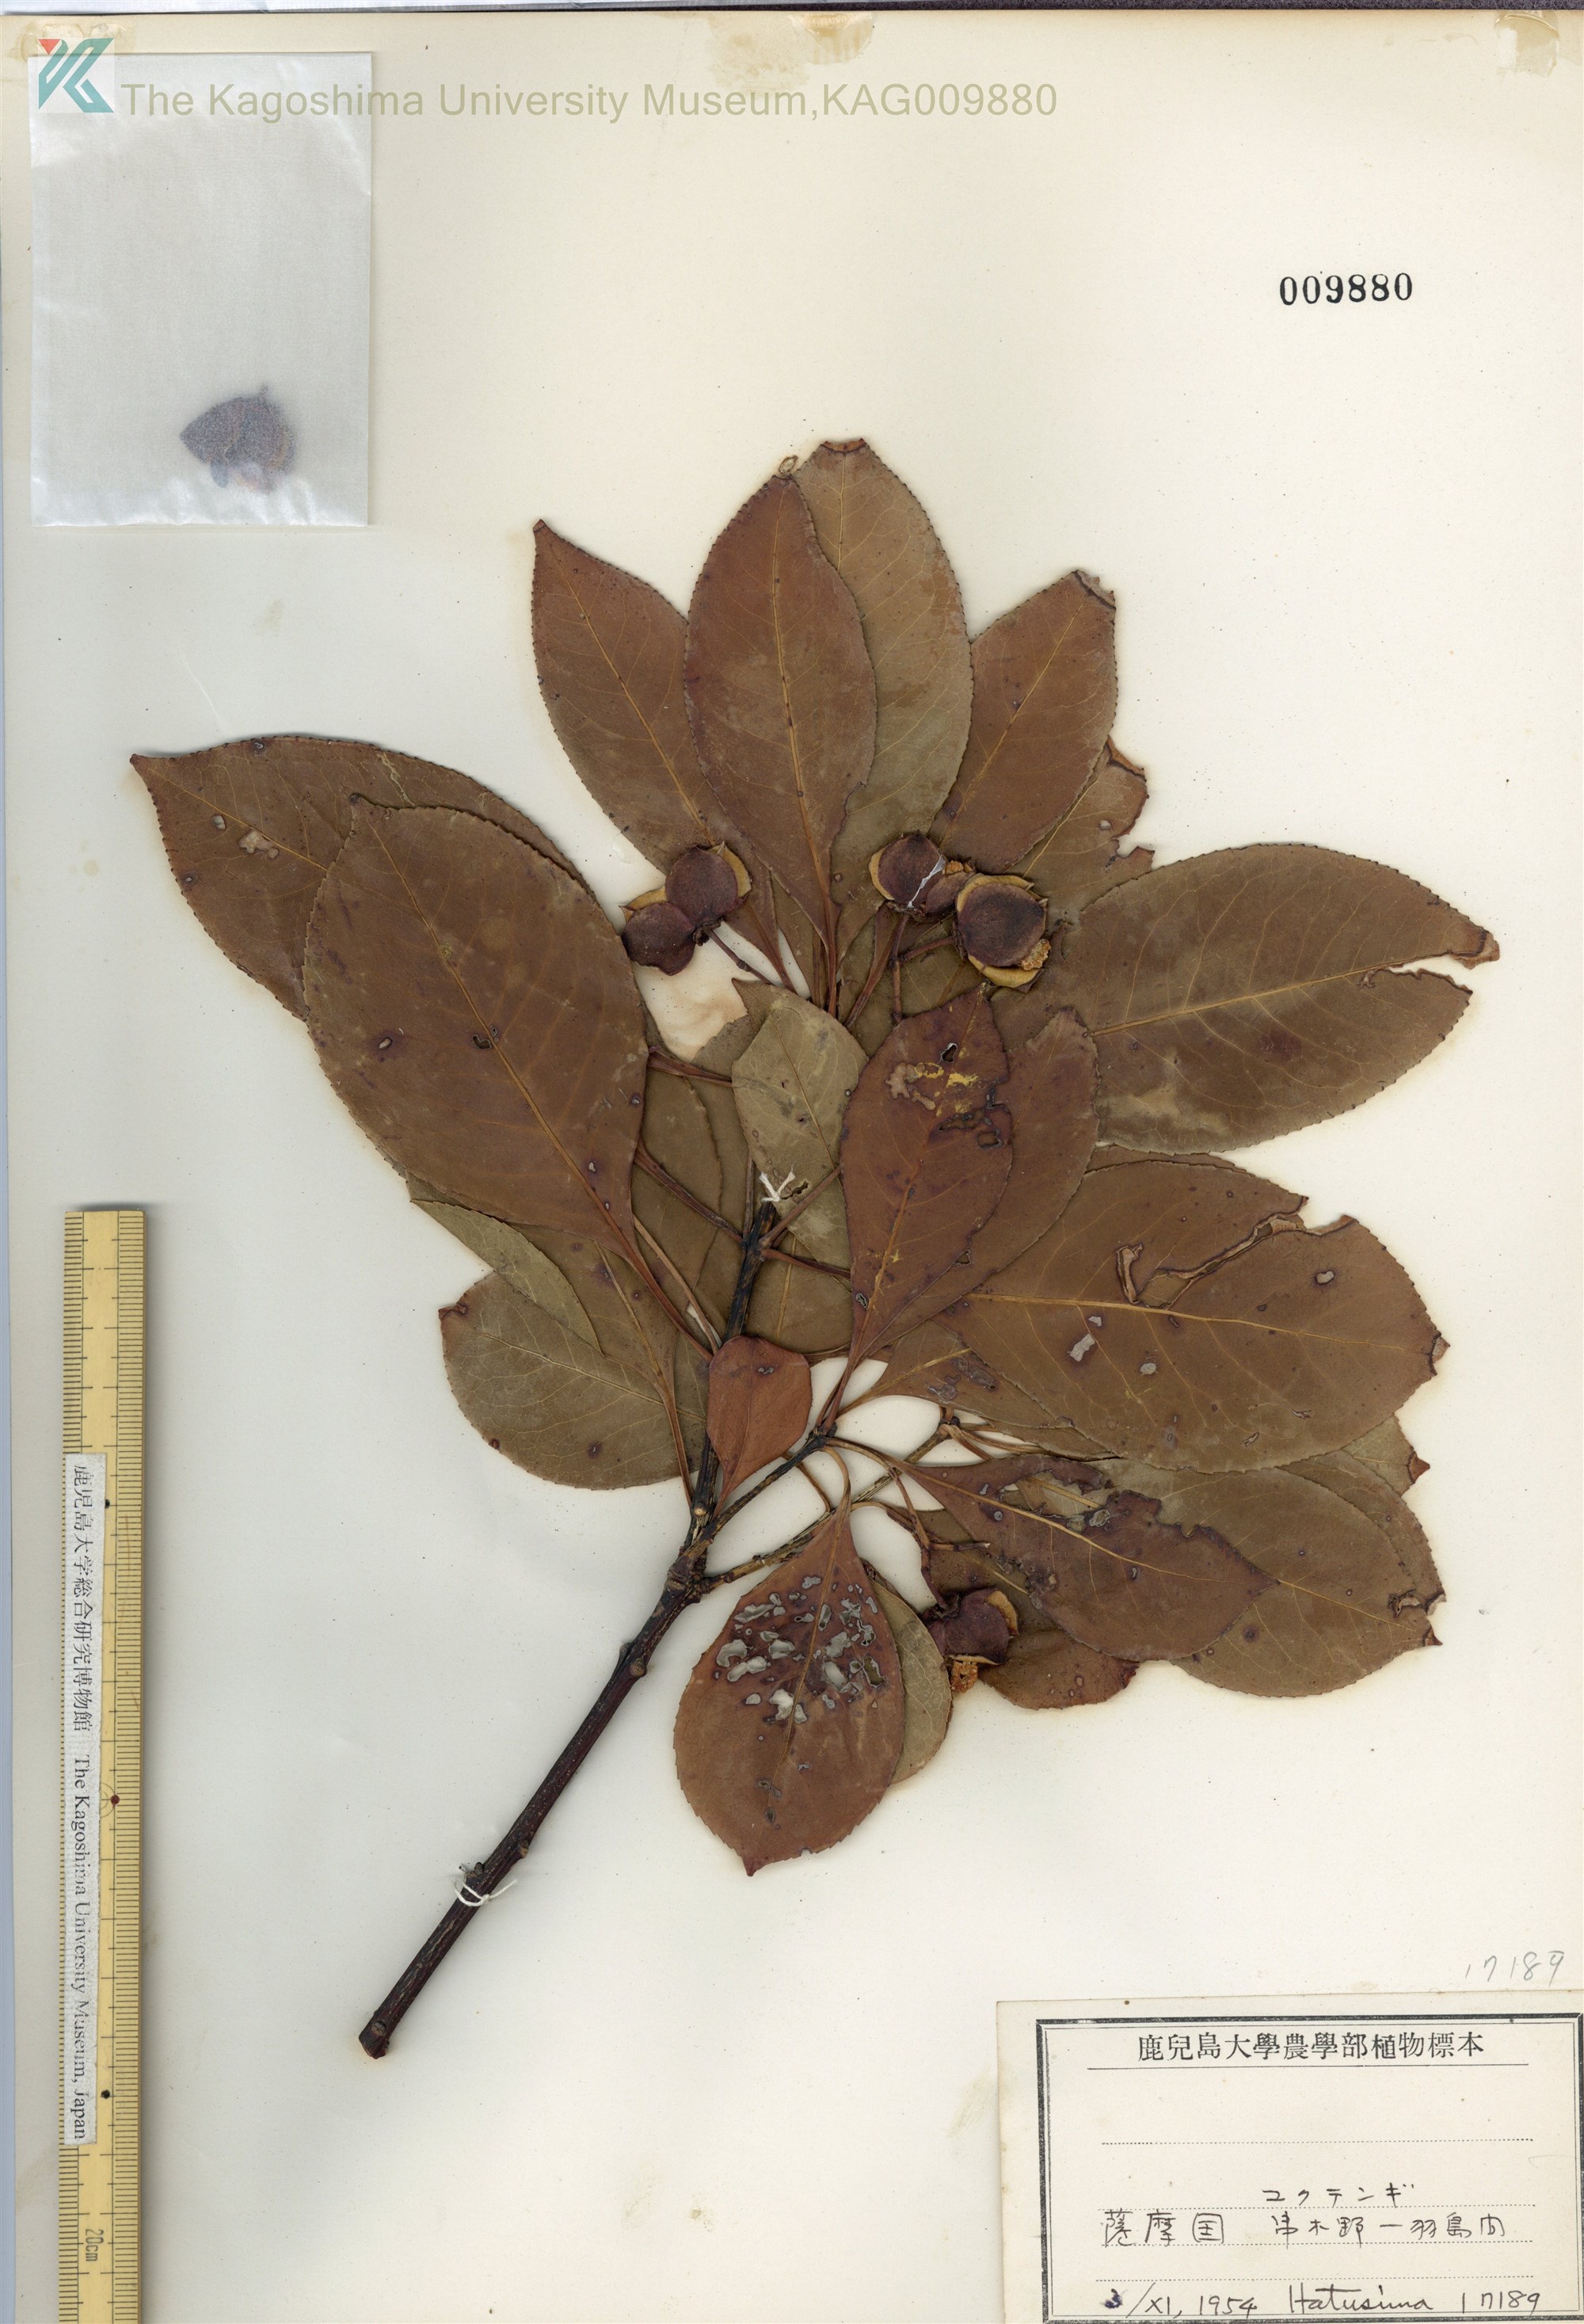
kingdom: Plantae
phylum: Tracheophyta
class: Magnoliopsida
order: Celastrales
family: Celastraceae
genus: Euonymus
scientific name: Euonymus carnosus
